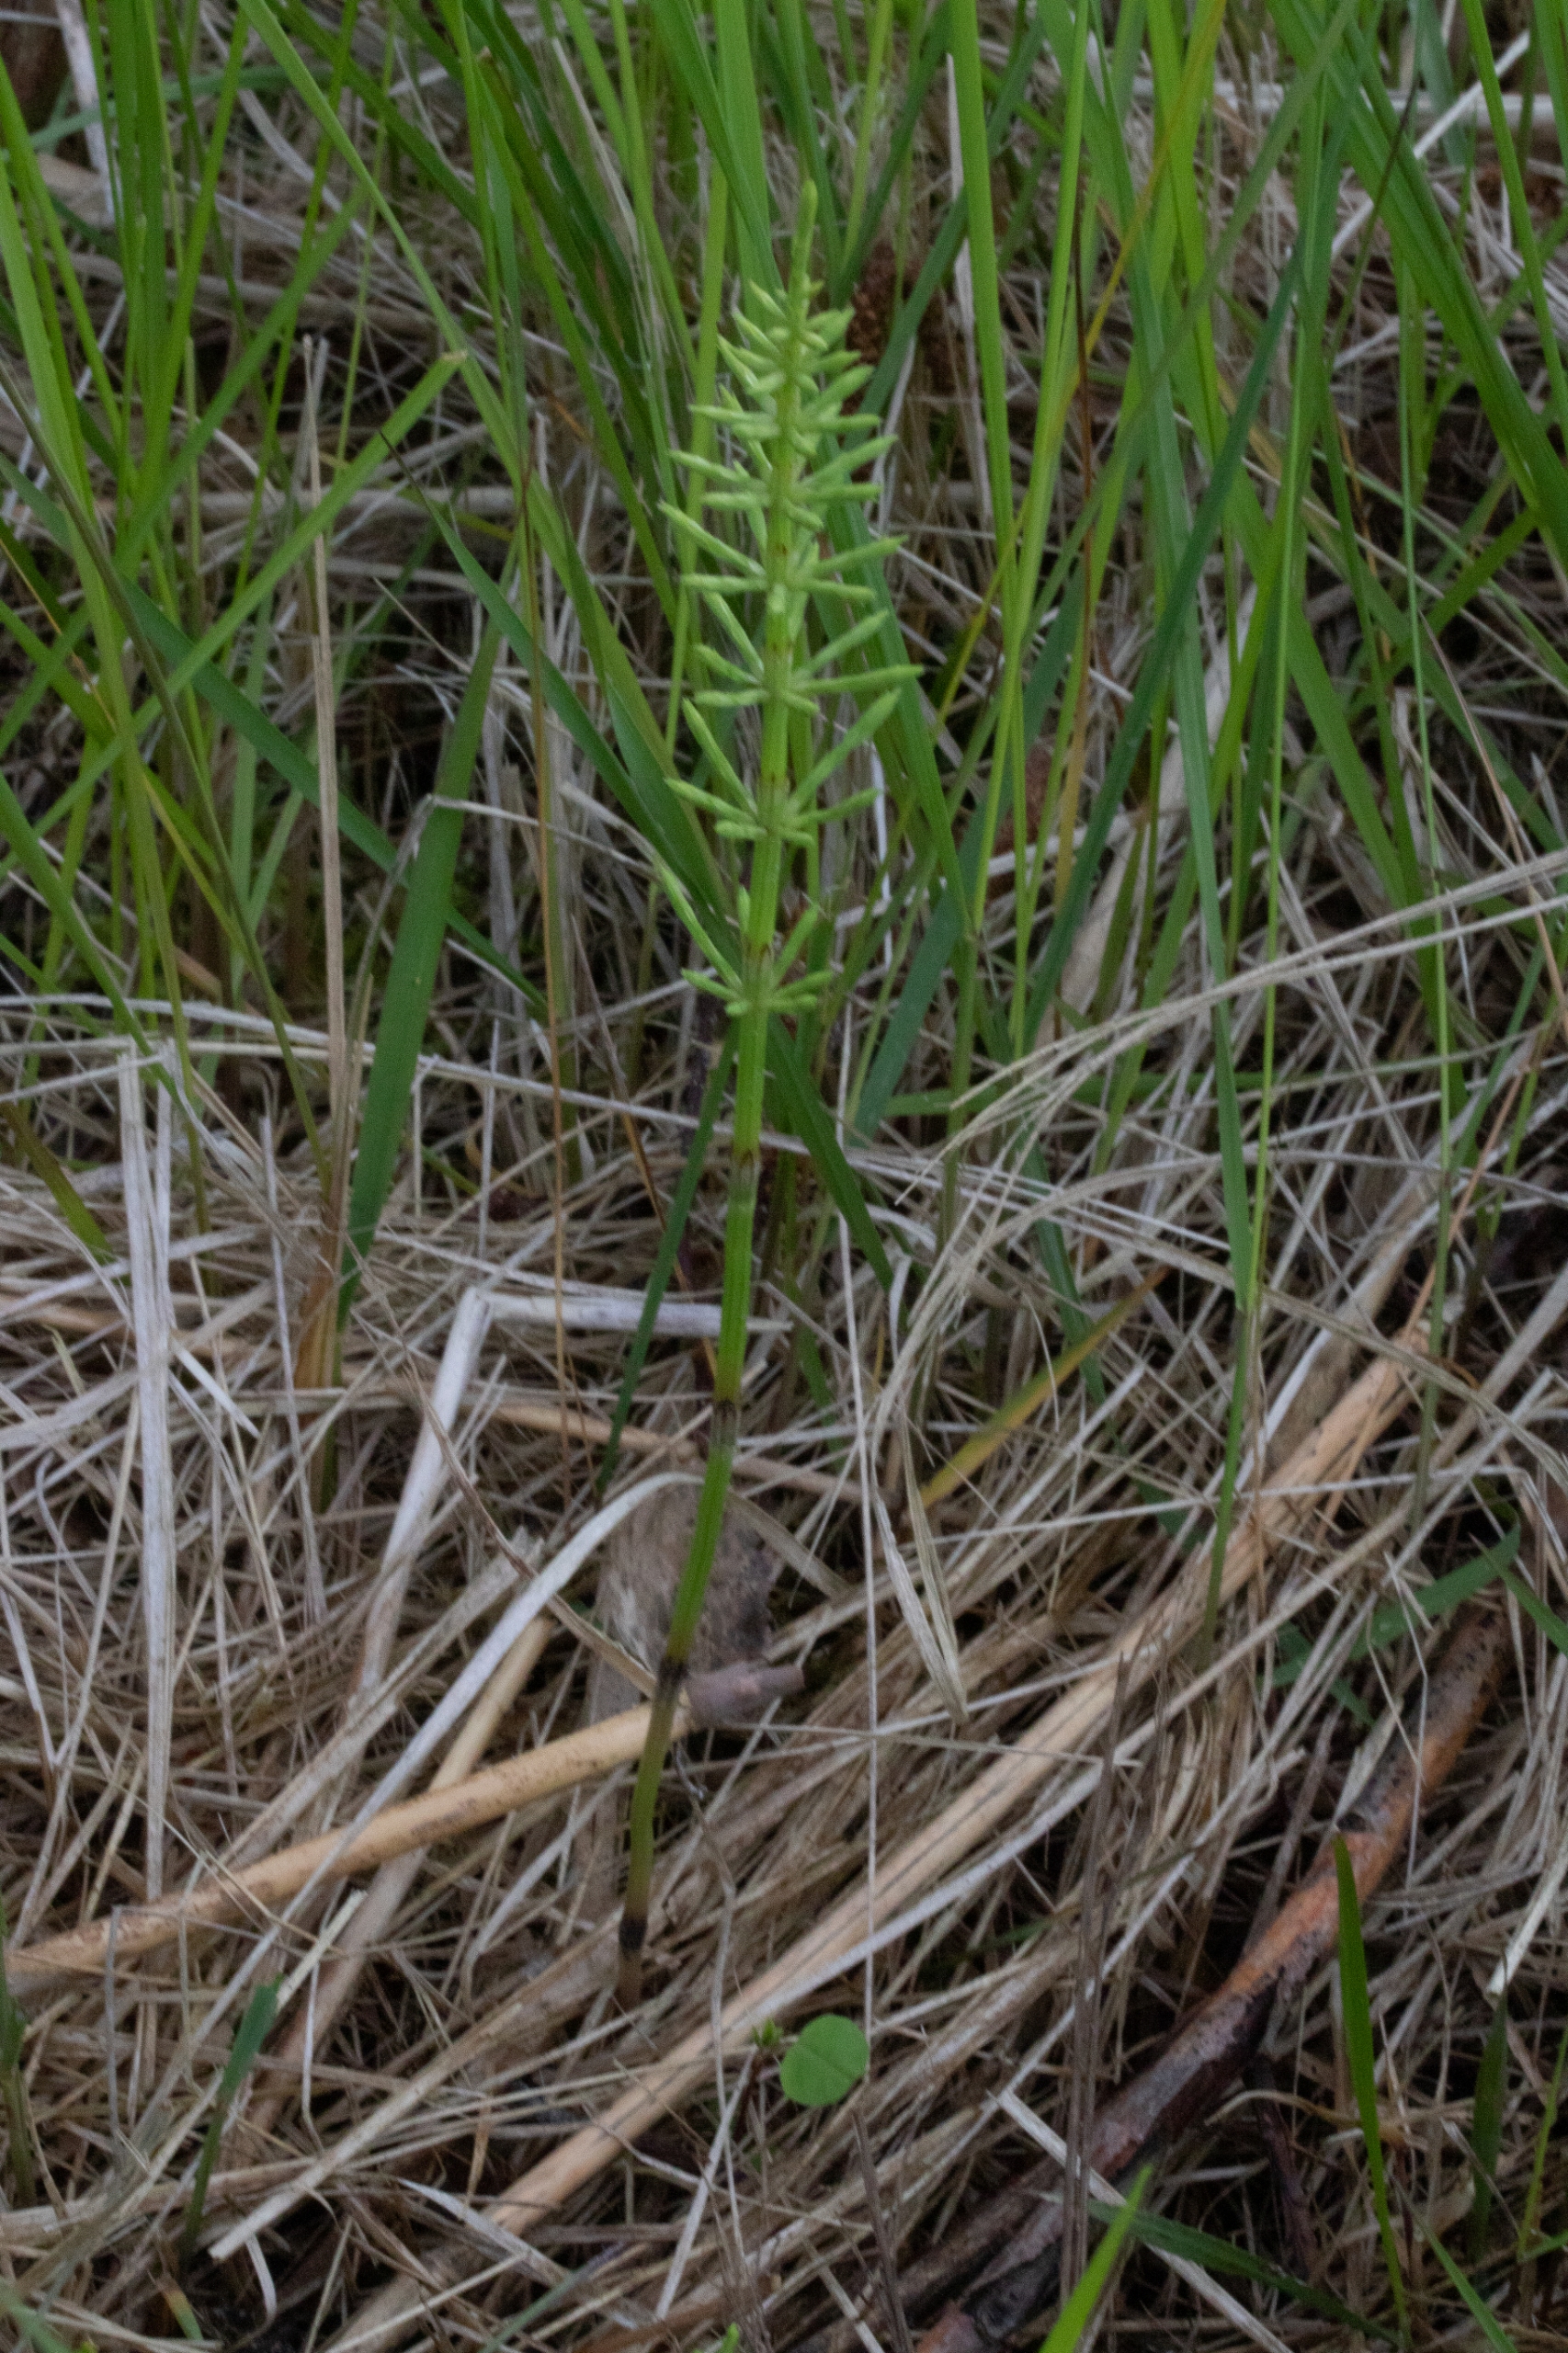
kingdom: Plantae
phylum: Tracheophyta
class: Polypodiopsida
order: Equisetales
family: Equisetaceae
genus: Equisetum
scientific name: Equisetum arvense
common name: Ager-padderok
